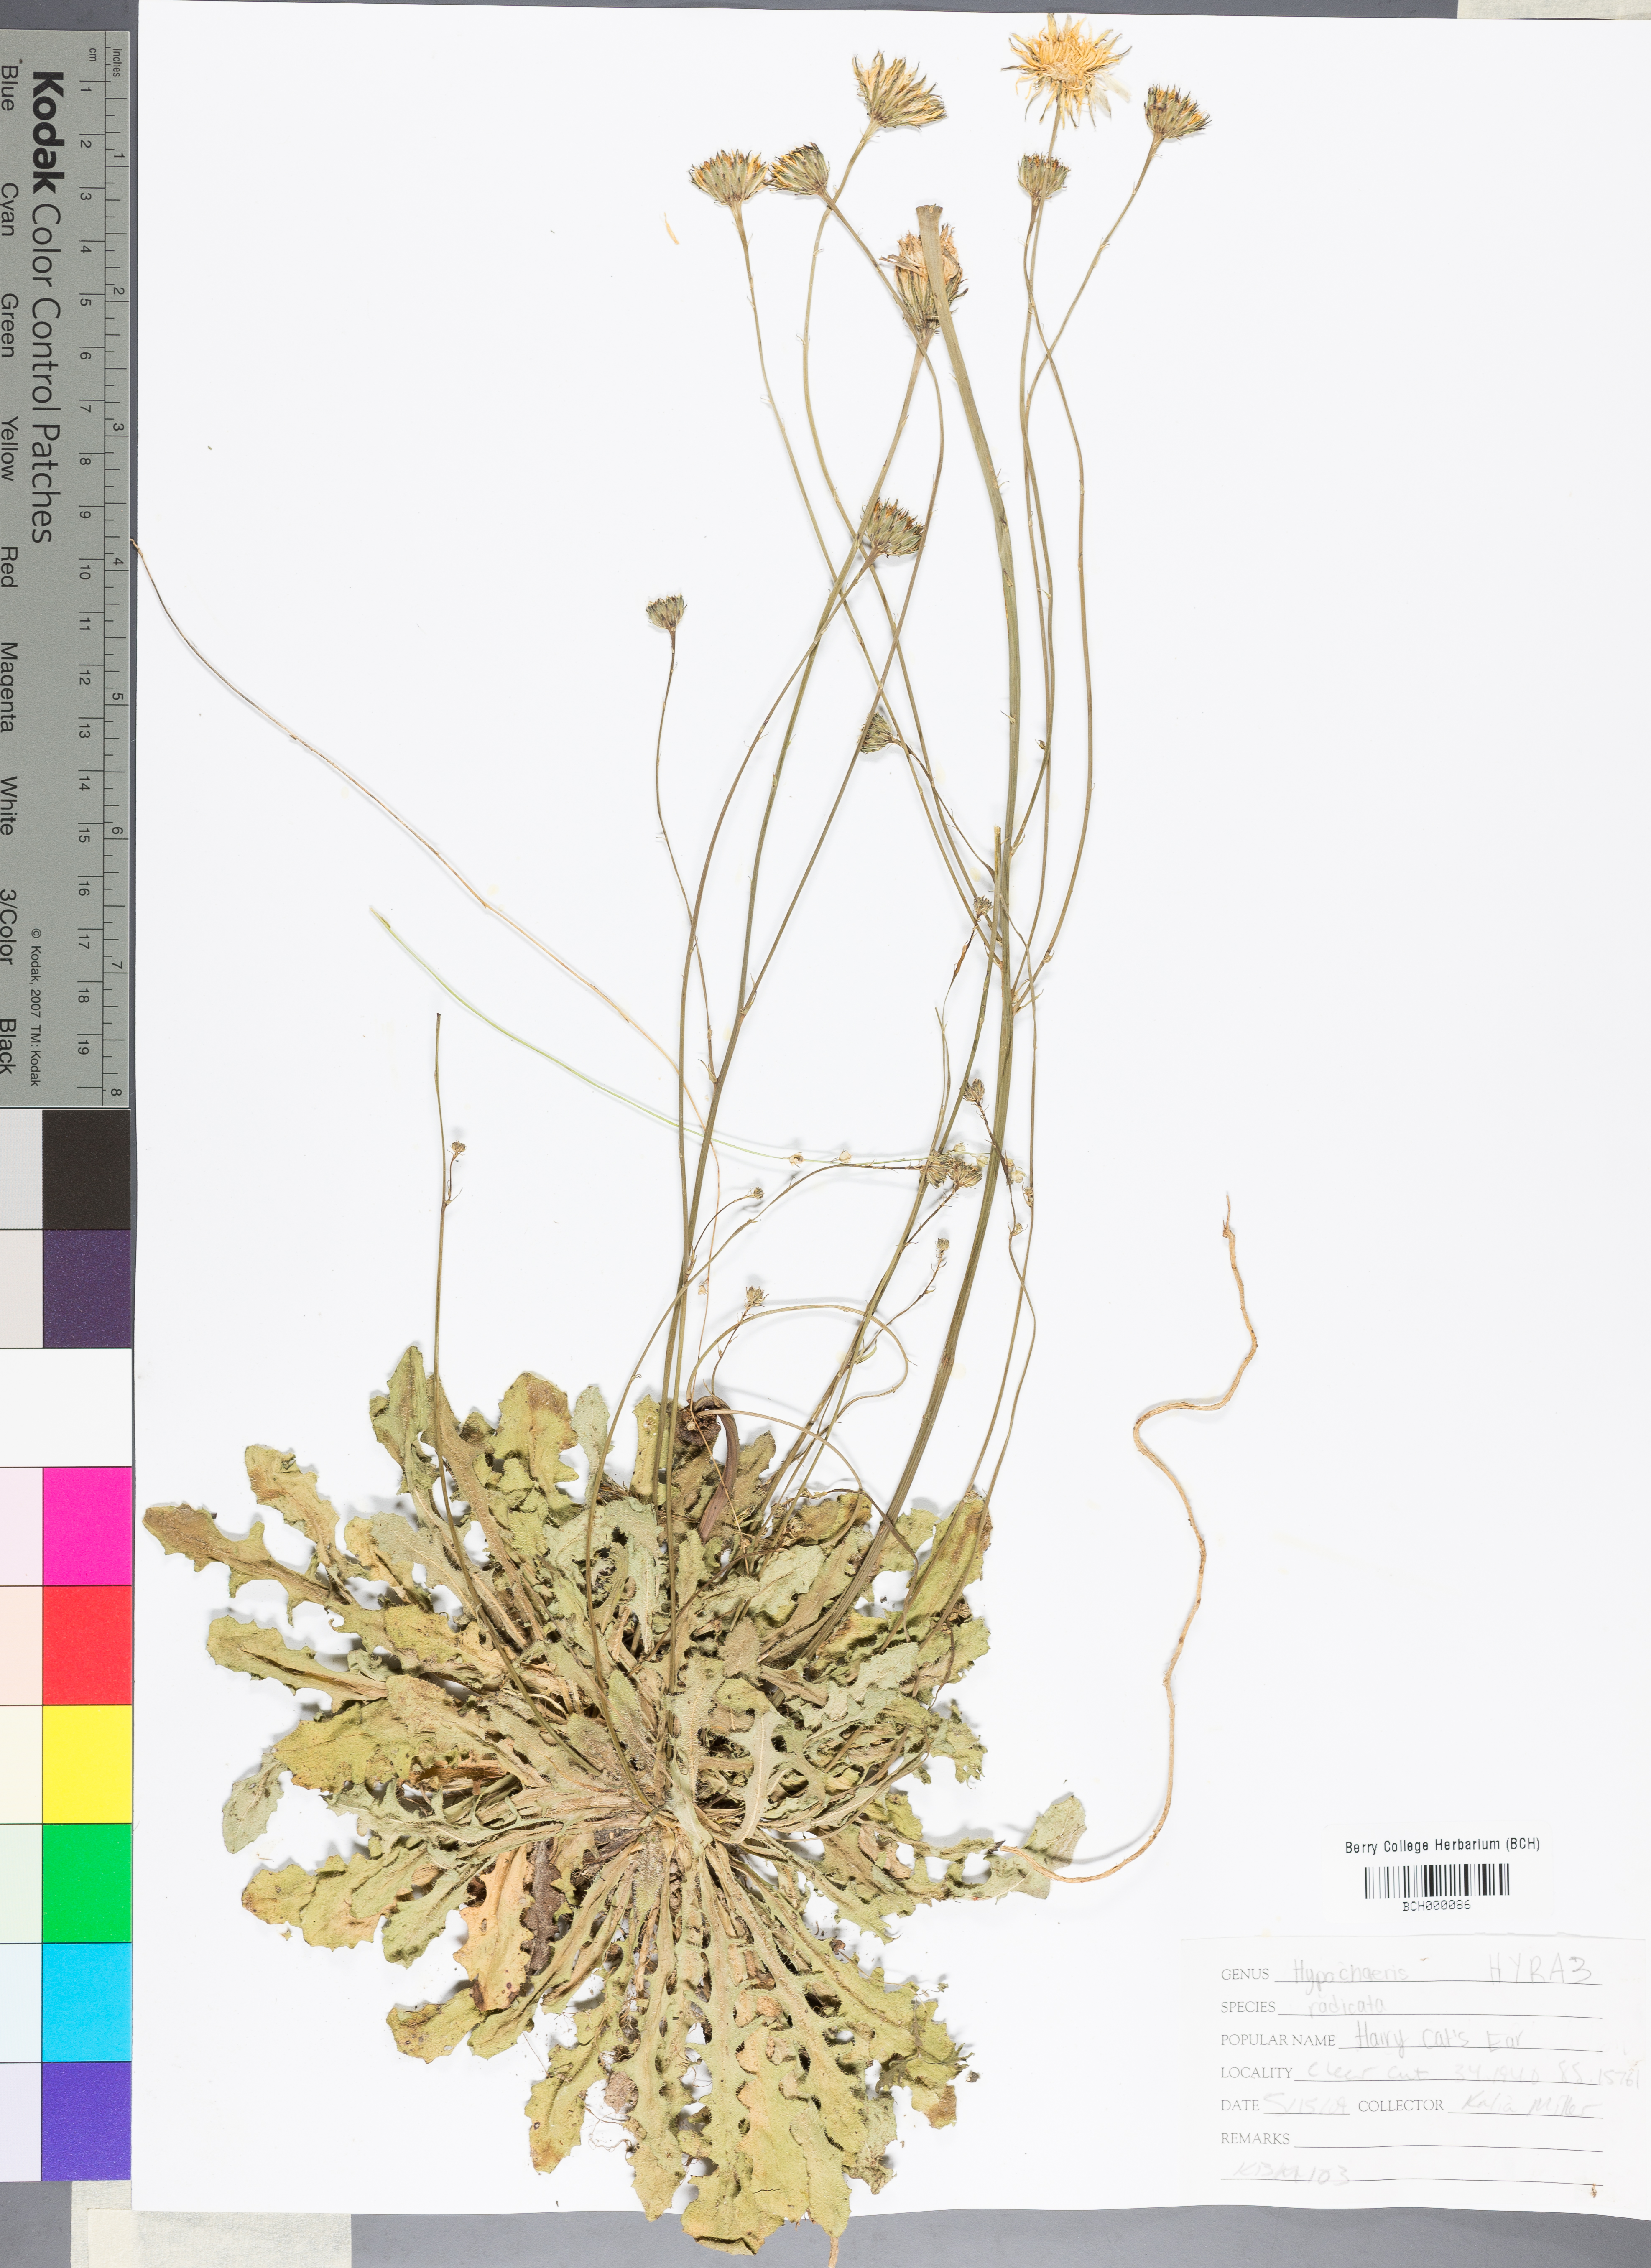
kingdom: Plantae
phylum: Tracheophyta
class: Magnoliopsida
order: Asterales
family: Asteraceae
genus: Hypochaeris
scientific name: Hypochaeris radicata
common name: Flatweed
